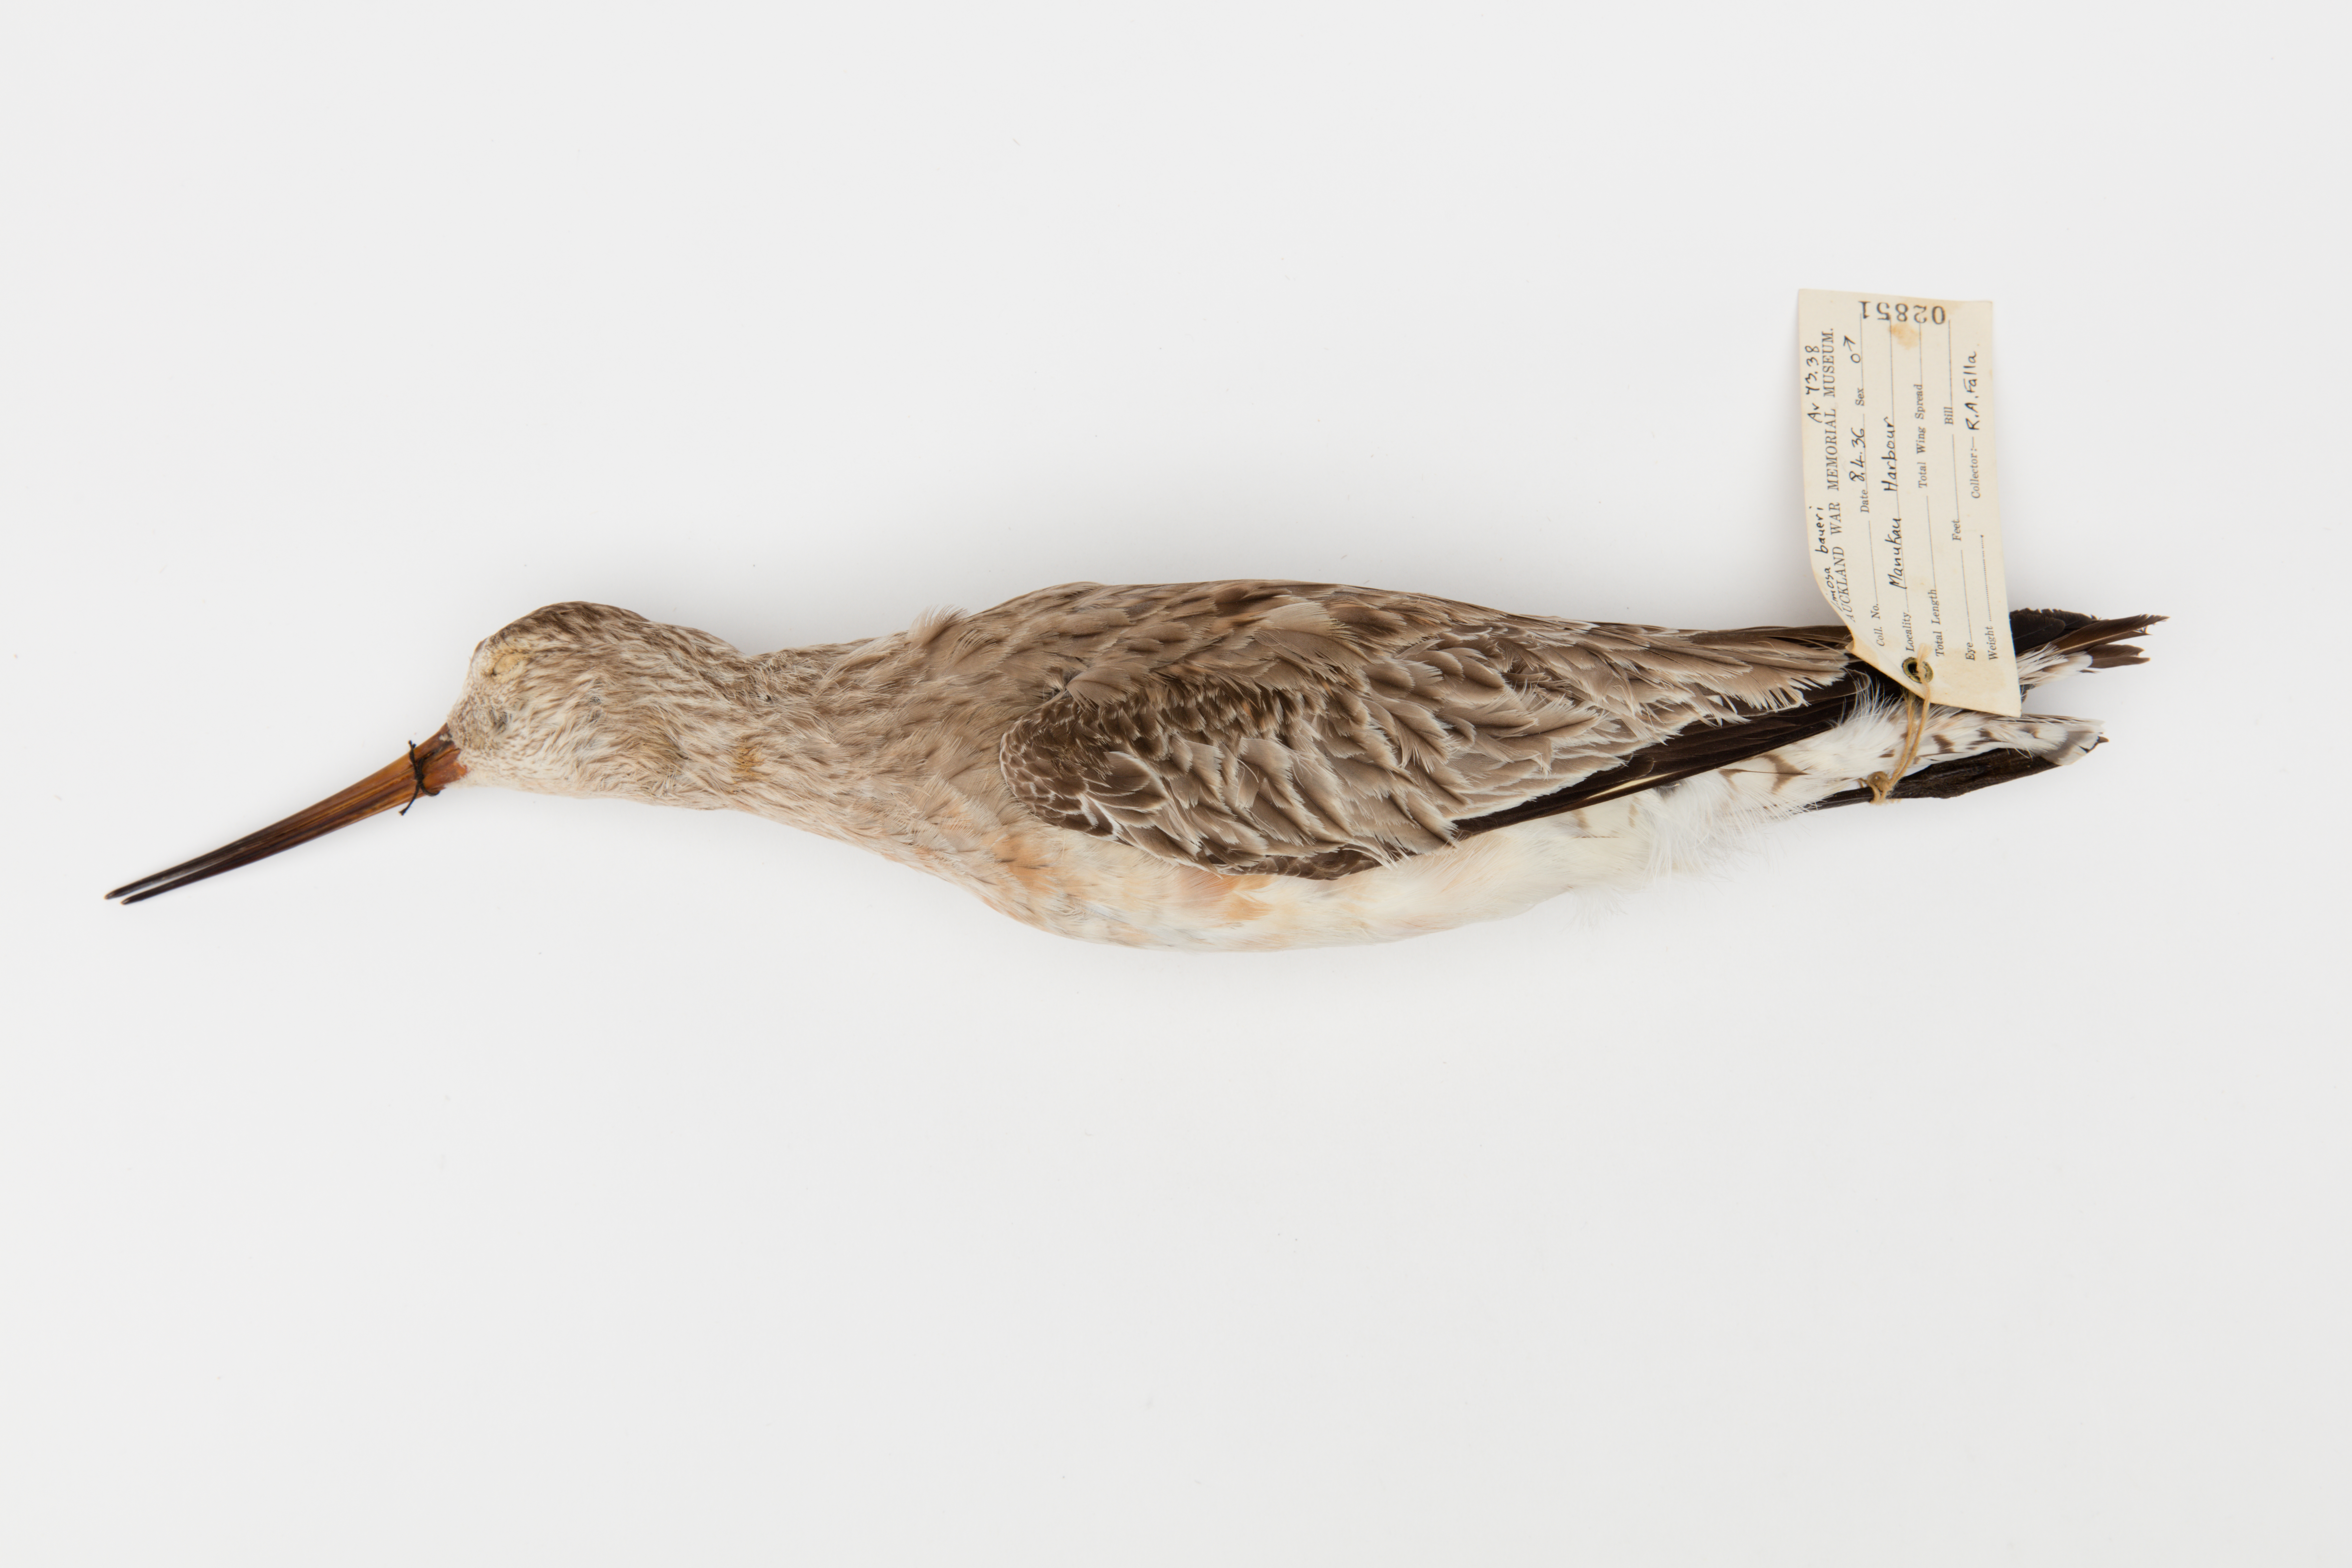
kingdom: Animalia
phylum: Chordata
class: Aves
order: Charadriiformes
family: Scolopacidae
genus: Limosa
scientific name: Limosa lapponica
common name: Bar-tailed godwit
